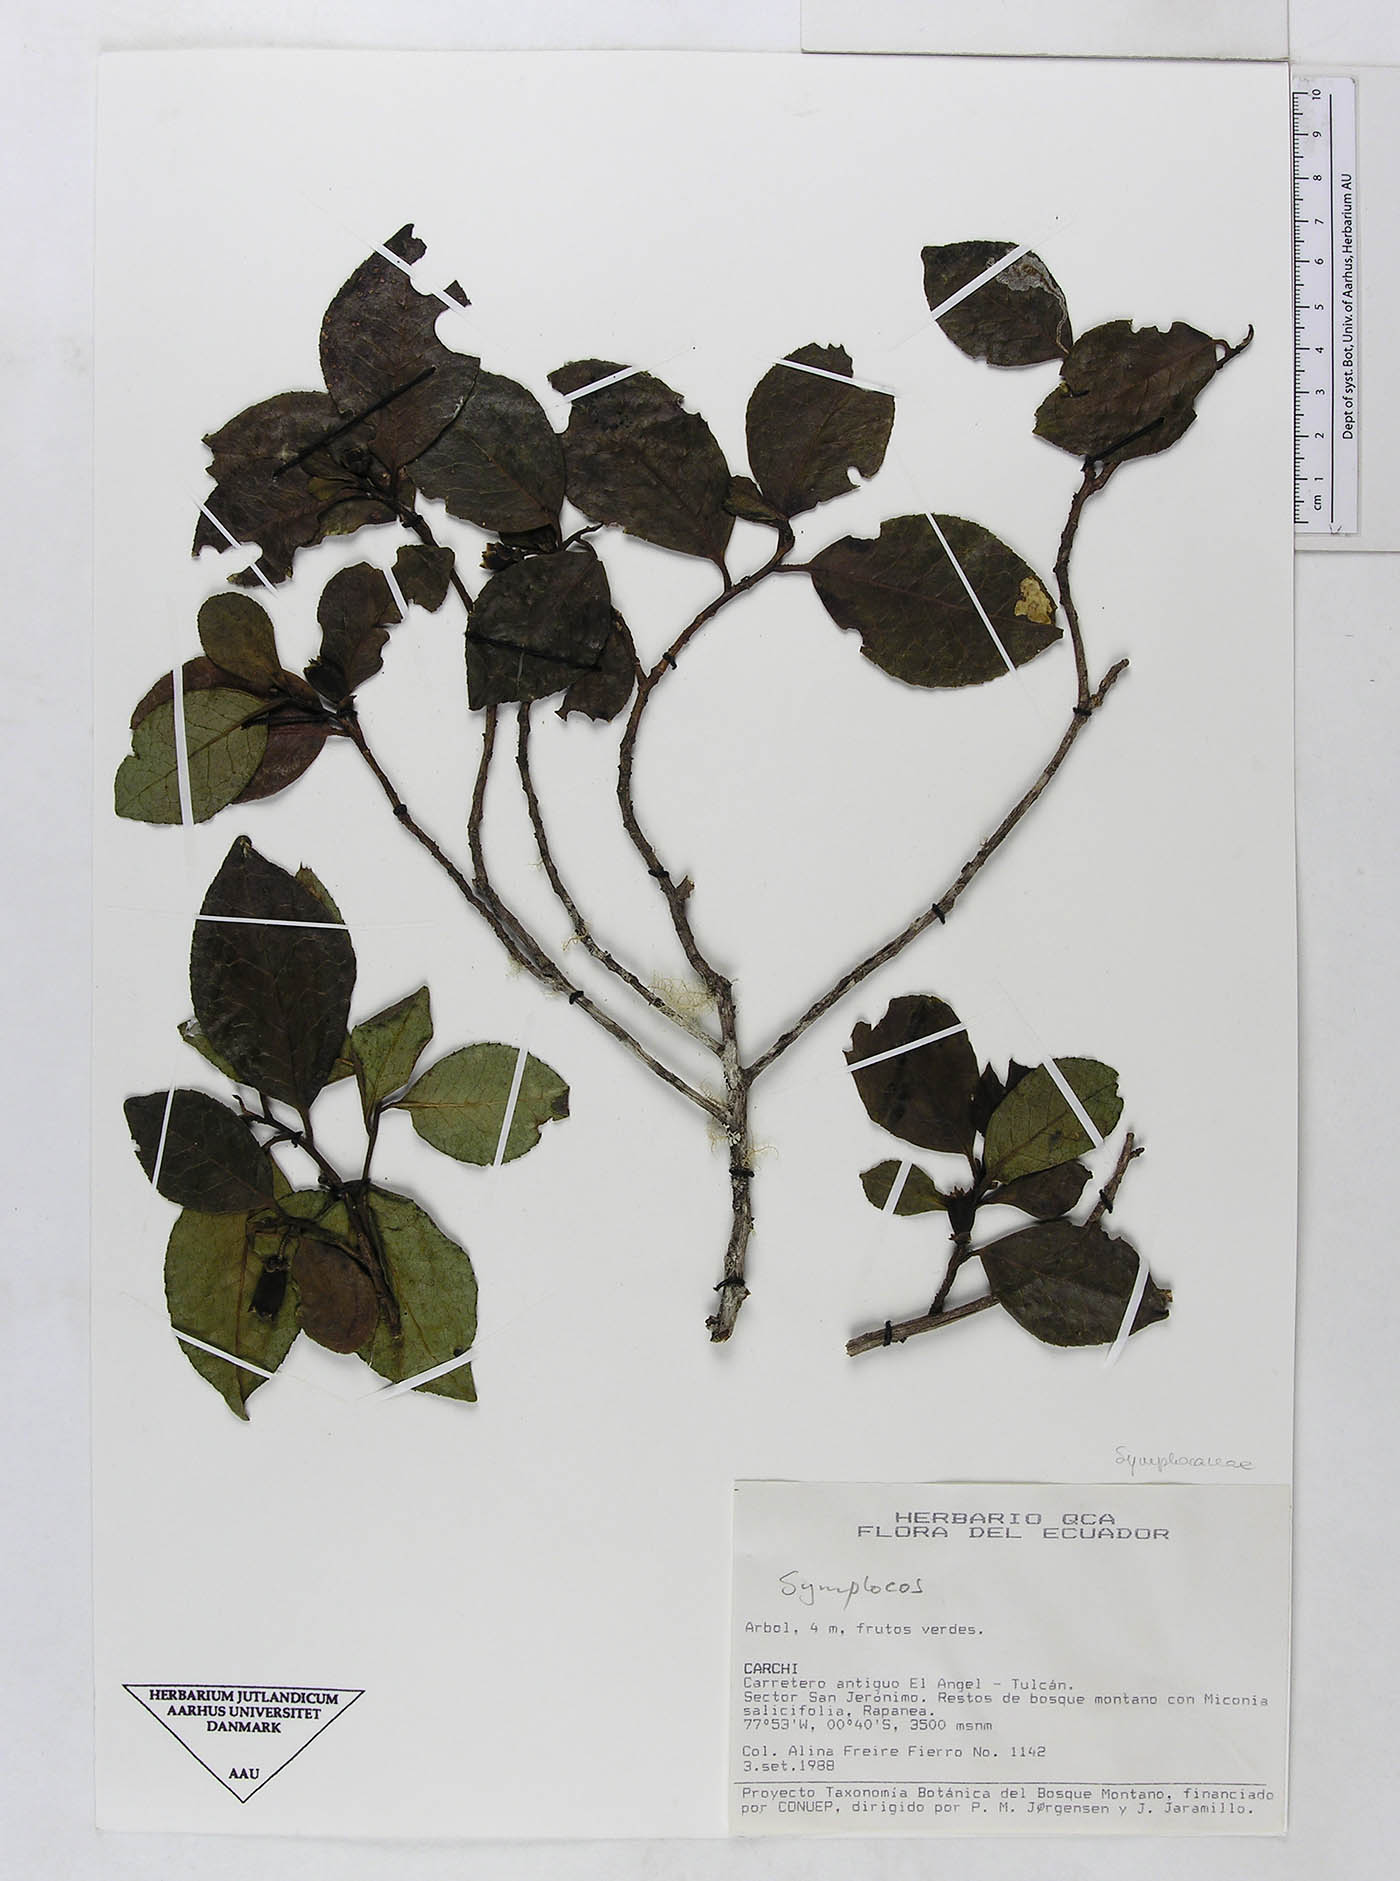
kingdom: Plantae
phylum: Tracheophyta
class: Magnoliopsida
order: Ericales
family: Symplocaceae
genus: Symplocos
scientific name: Symplocos fimbriata
